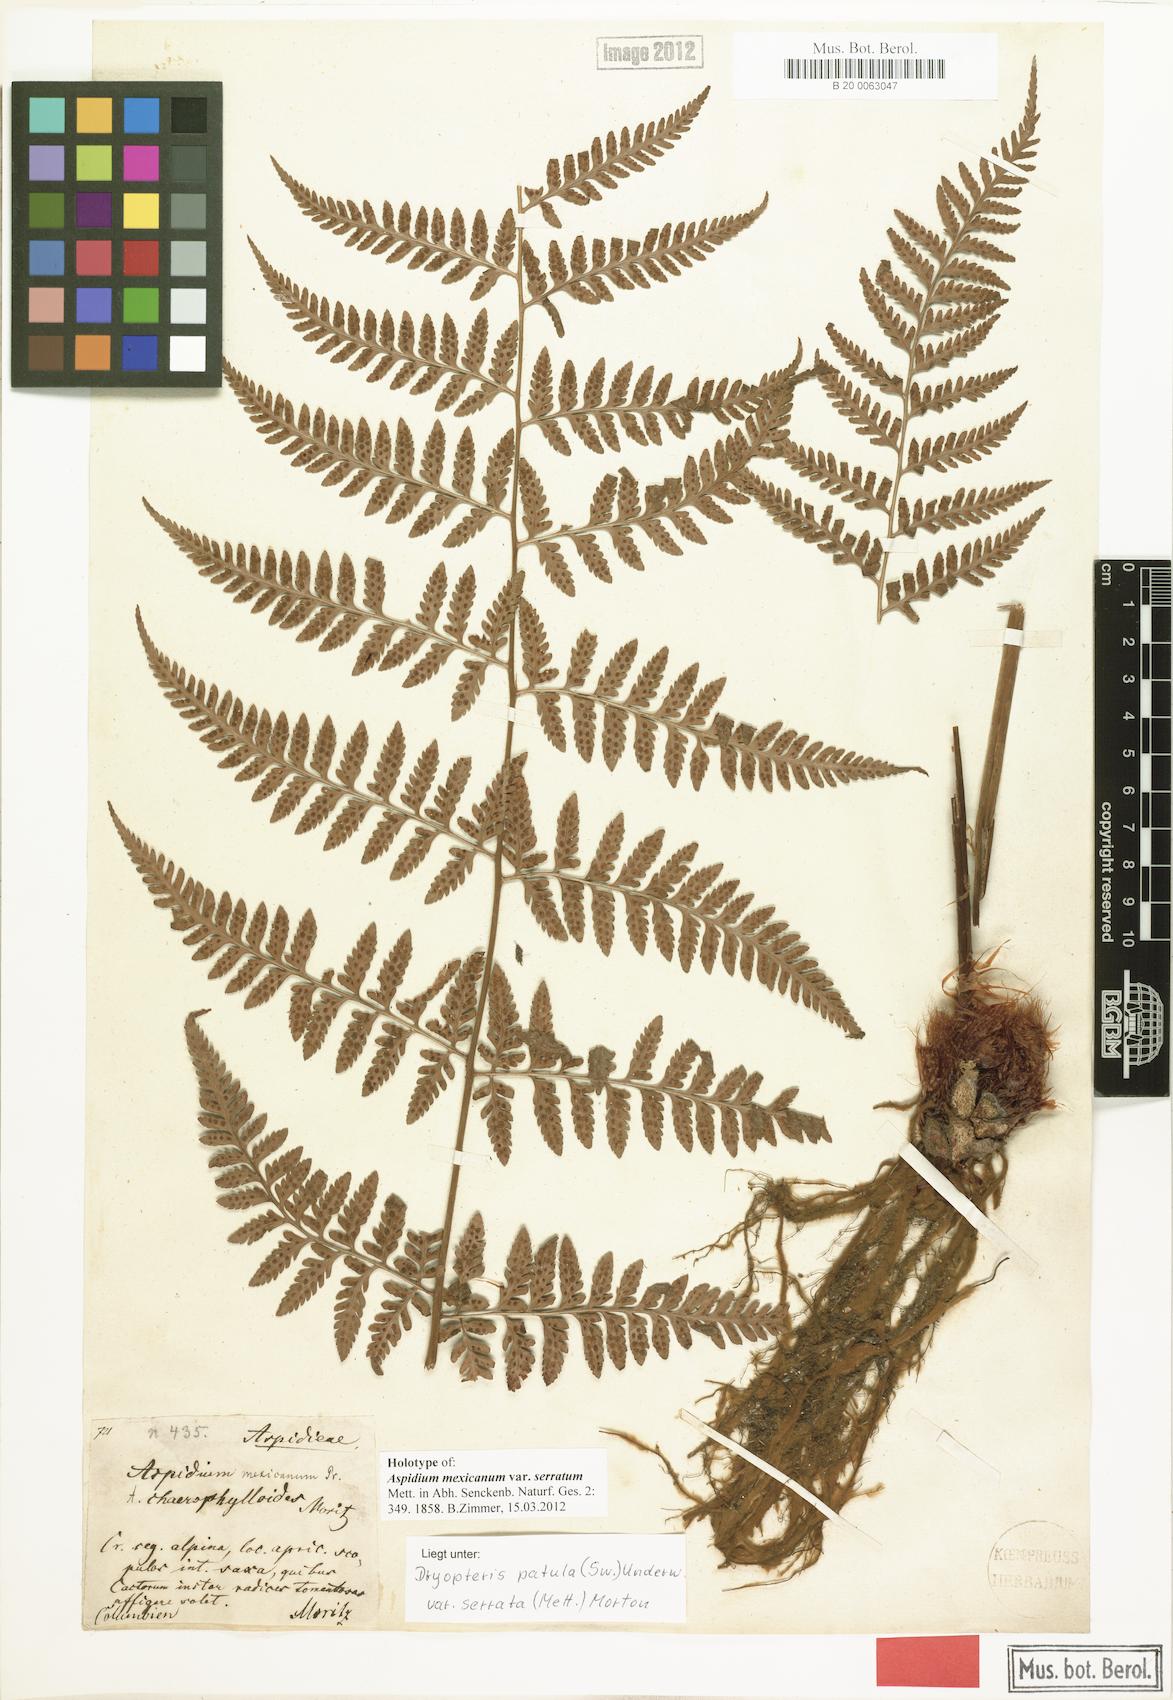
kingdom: Plantae
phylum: Tracheophyta
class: Polypodiopsida
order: Polypodiales
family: Dryopteridaceae
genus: Dryopteris
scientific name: Dryopteris patula
